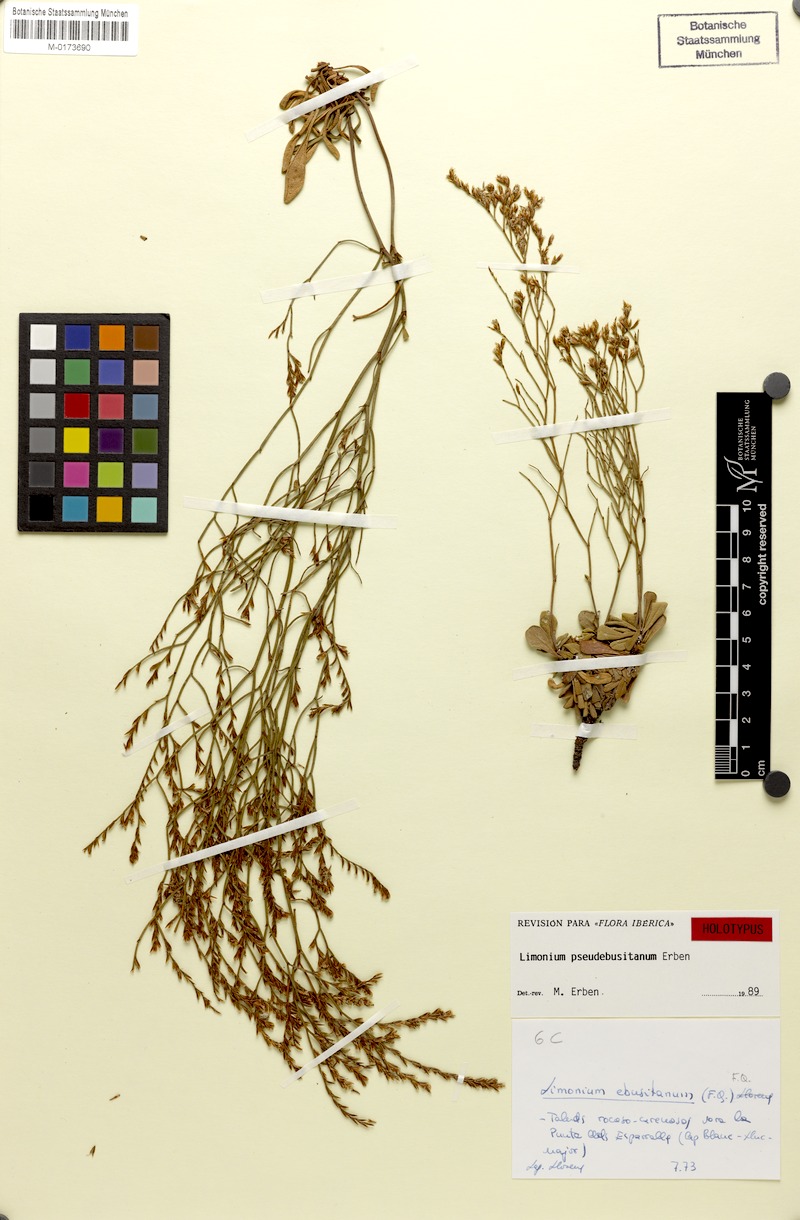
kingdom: Plantae
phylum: Tracheophyta
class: Magnoliopsida
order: Caryophyllales
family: Plumbaginaceae
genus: Limonium
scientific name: Limonium pseudebusitanum
